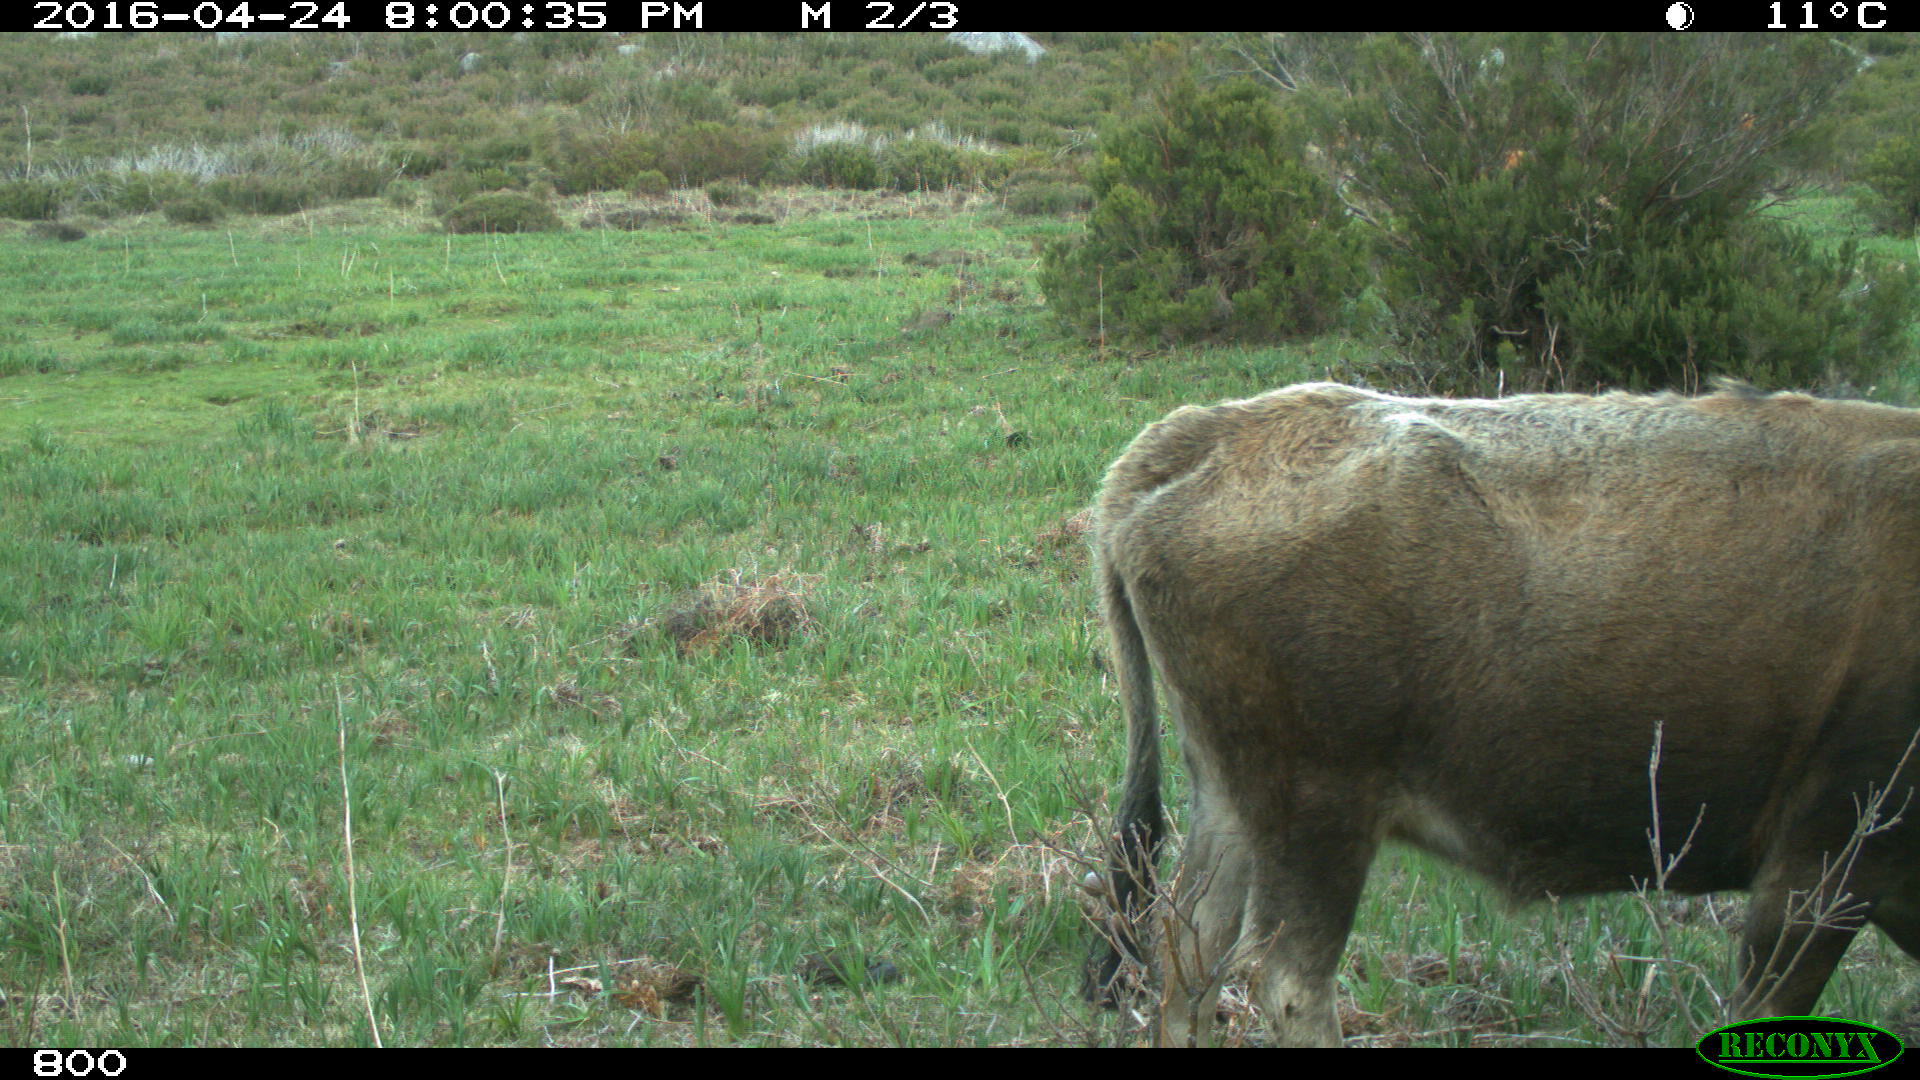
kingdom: Animalia
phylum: Chordata
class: Mammalia
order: Artiodactyla
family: Bovidae
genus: Bos
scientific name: Bos taurus
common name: Domesticated cattle
